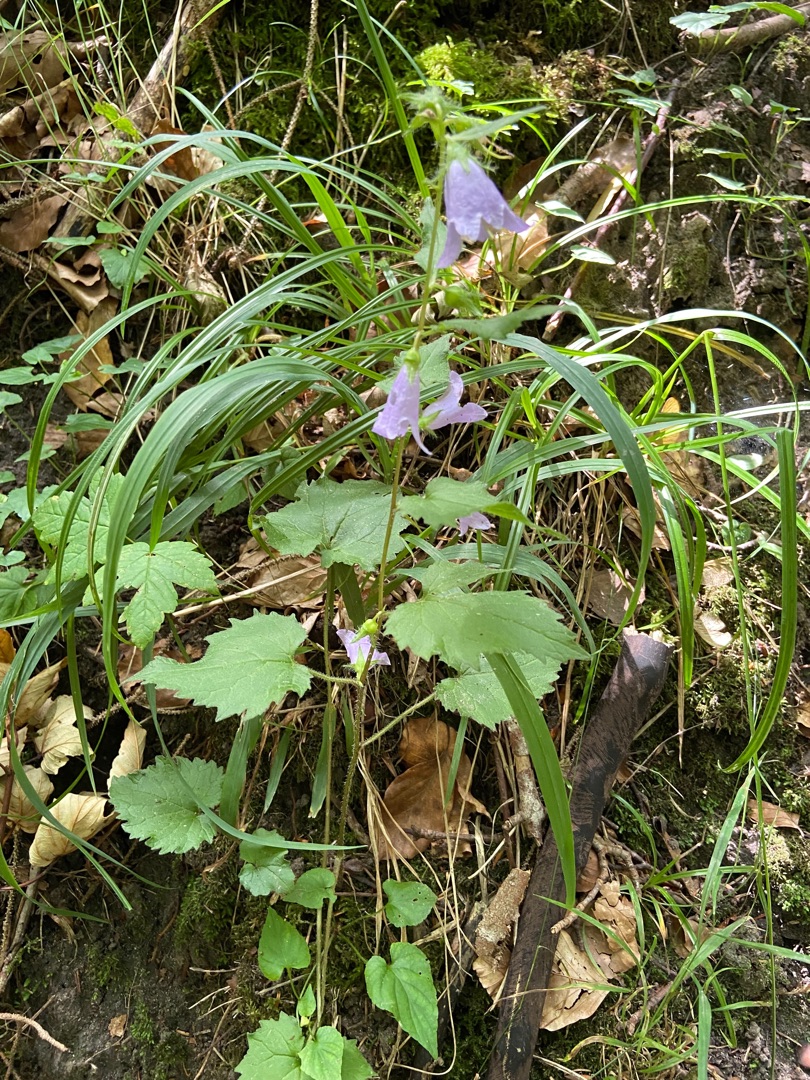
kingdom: Plantae
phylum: Tracheophyta
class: Magnoliopsida
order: Asterales
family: Campanulaceae
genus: Campanula
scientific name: Campanula trachelium
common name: Nælde-klokke
